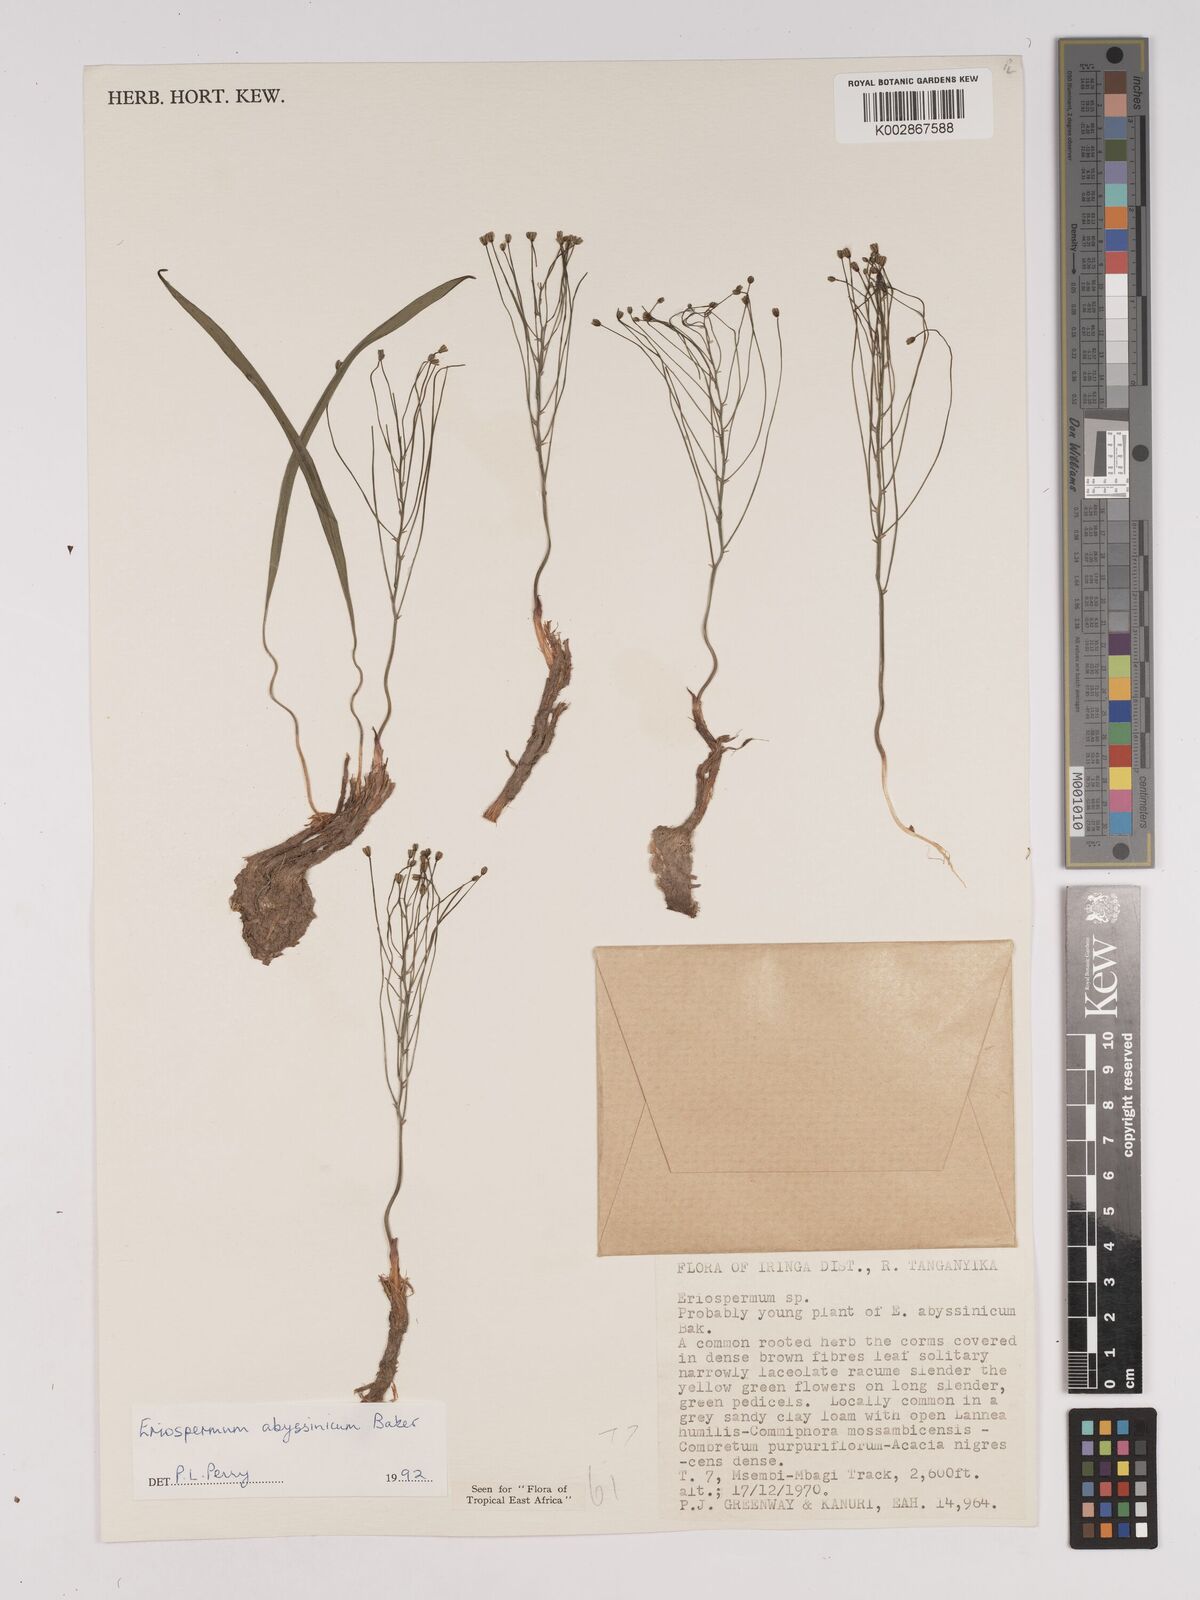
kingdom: Plantae
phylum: Tracheophyta
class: Liliopsida
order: Asparagales
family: Asparagaceae
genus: Eriospermum
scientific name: Eriospermum abyssinicum
